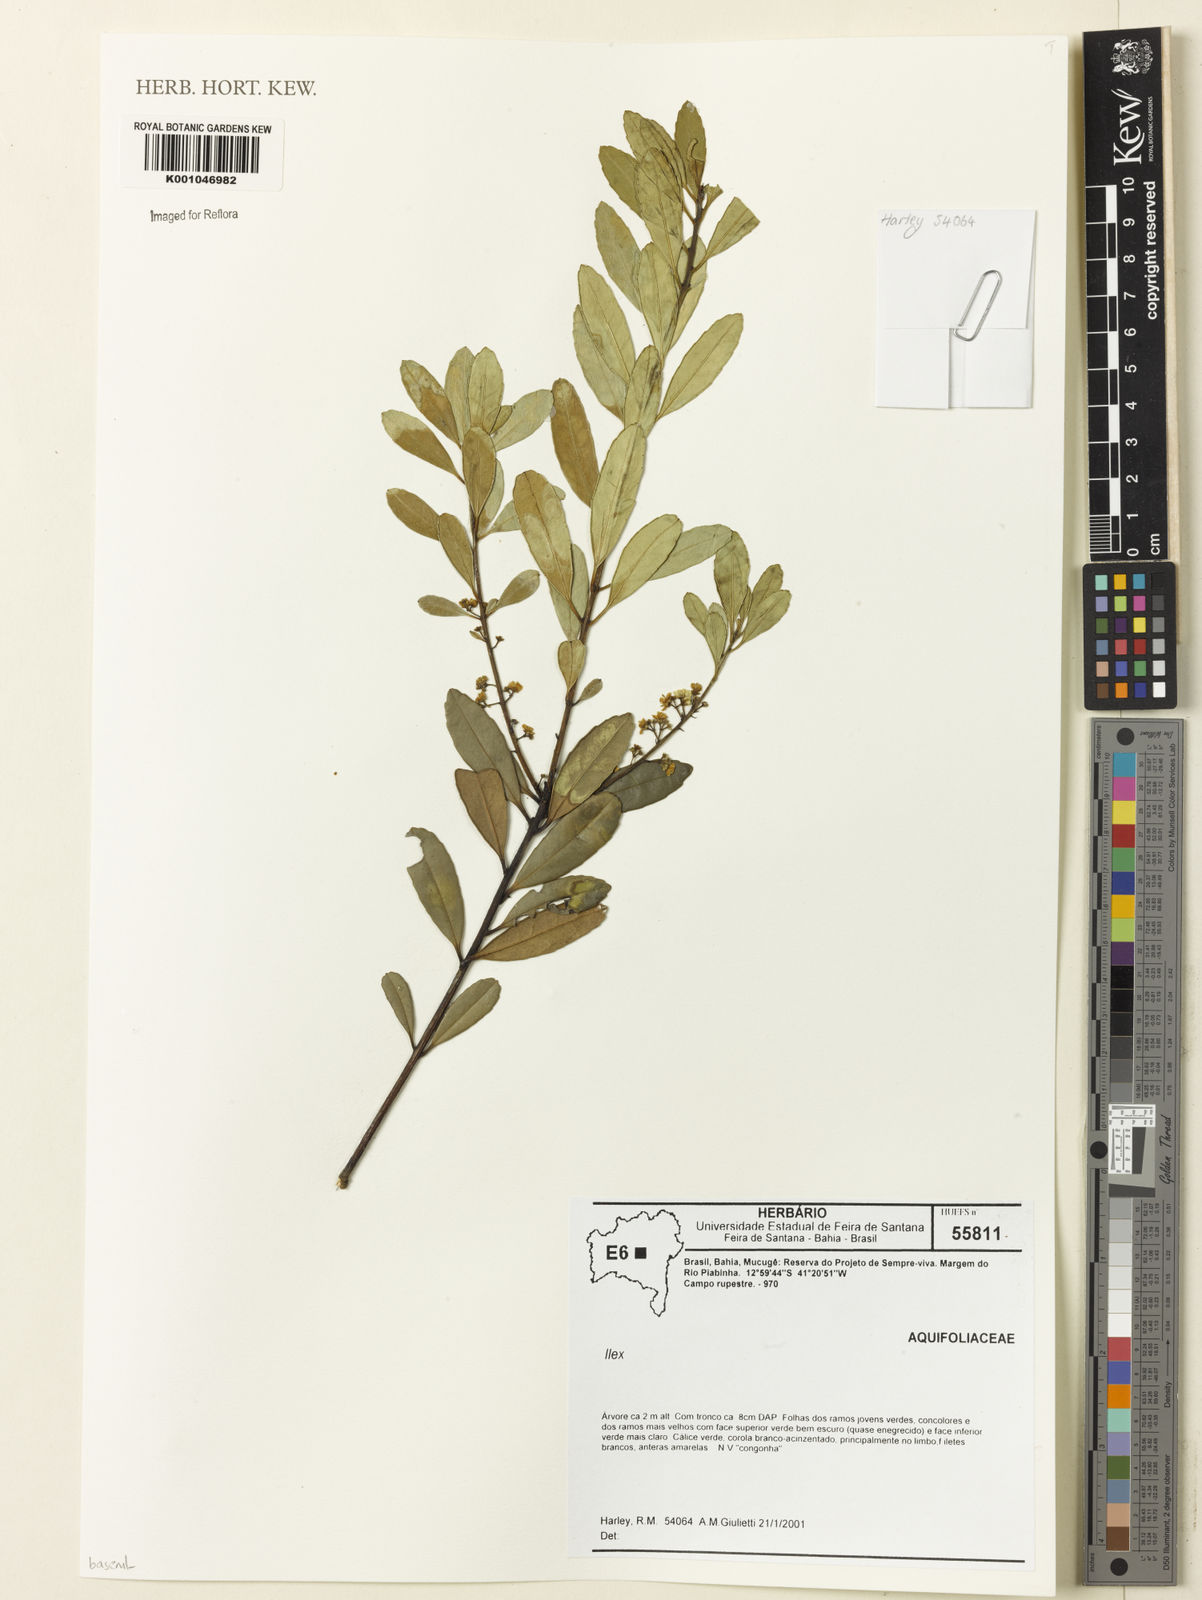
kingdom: Plantae
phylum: Tracheophyta
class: Magnoliopsida
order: Aquifoliales
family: Aquifoliaceae
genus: Ilex
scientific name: Ilex
